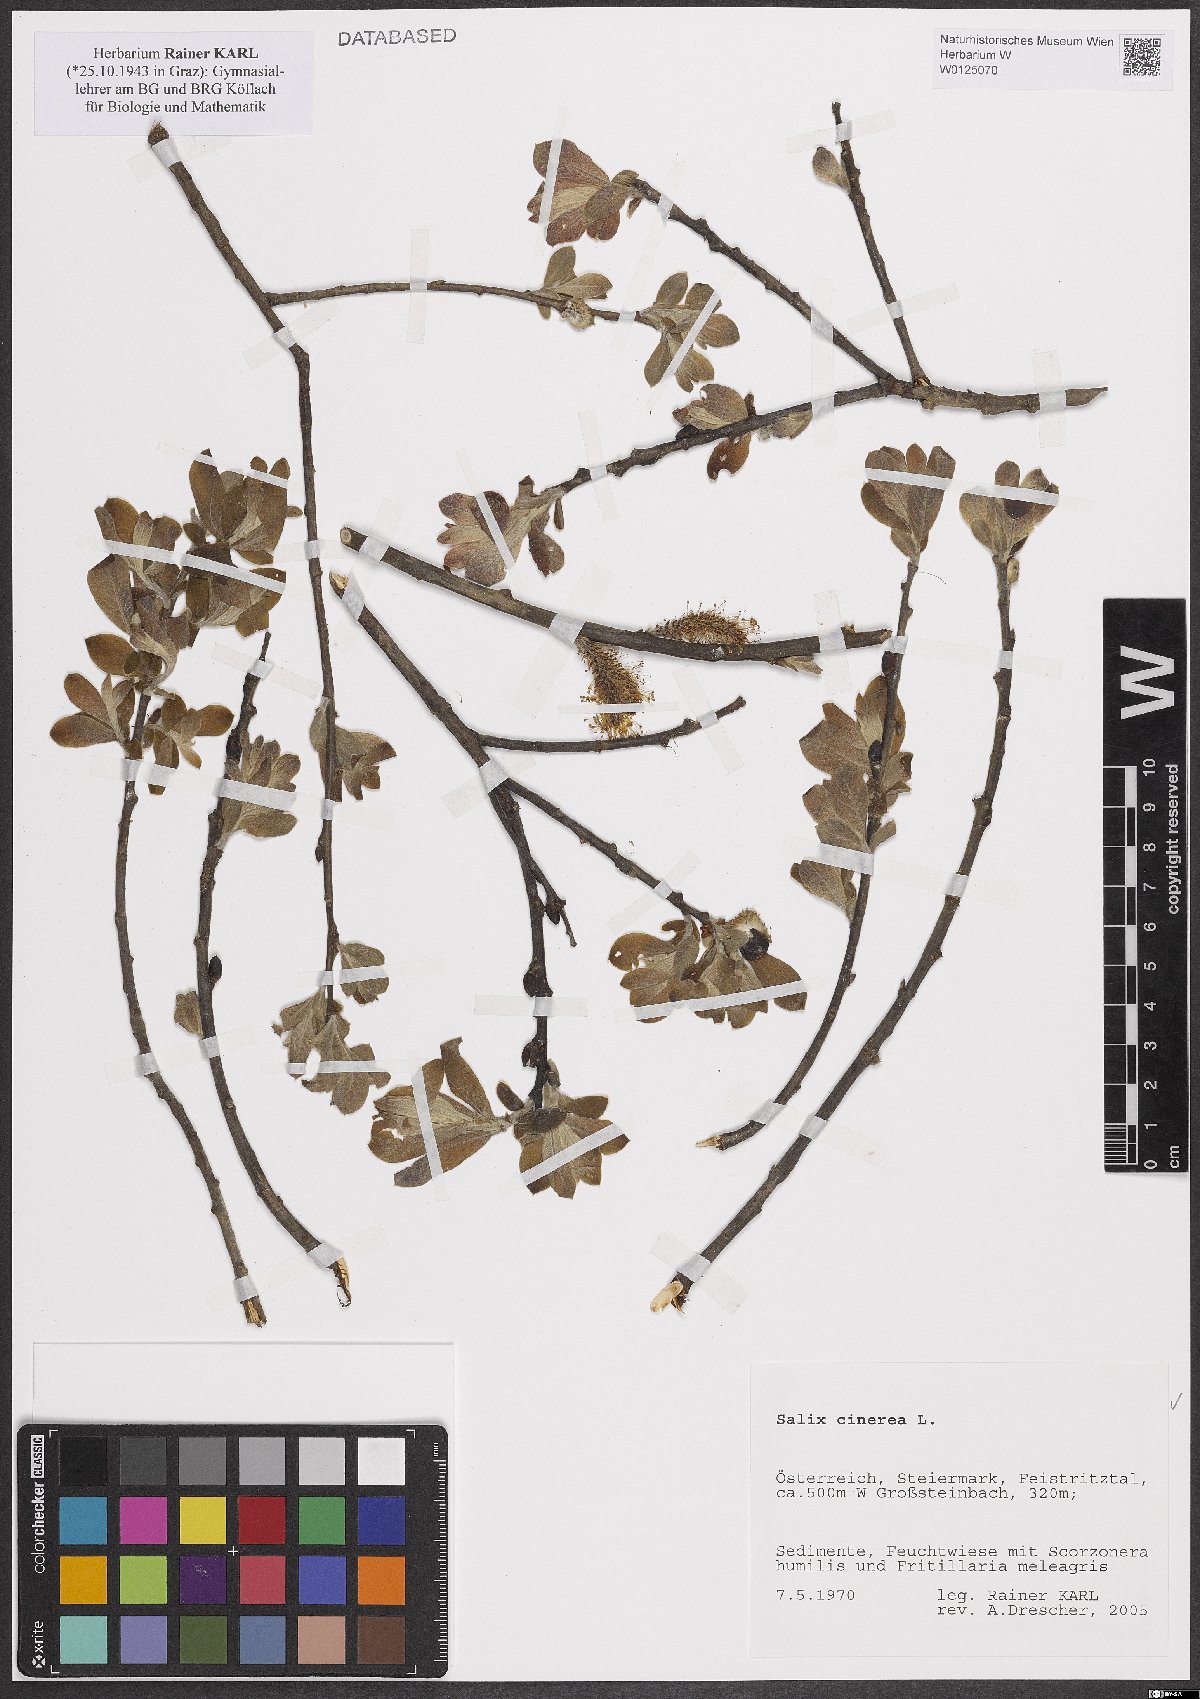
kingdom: Plantae
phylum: Tracheophyta
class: Magnoliopsida
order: Malpighiales
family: Salicaceae
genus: Salix
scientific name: Salix cinerea
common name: Common sallow
